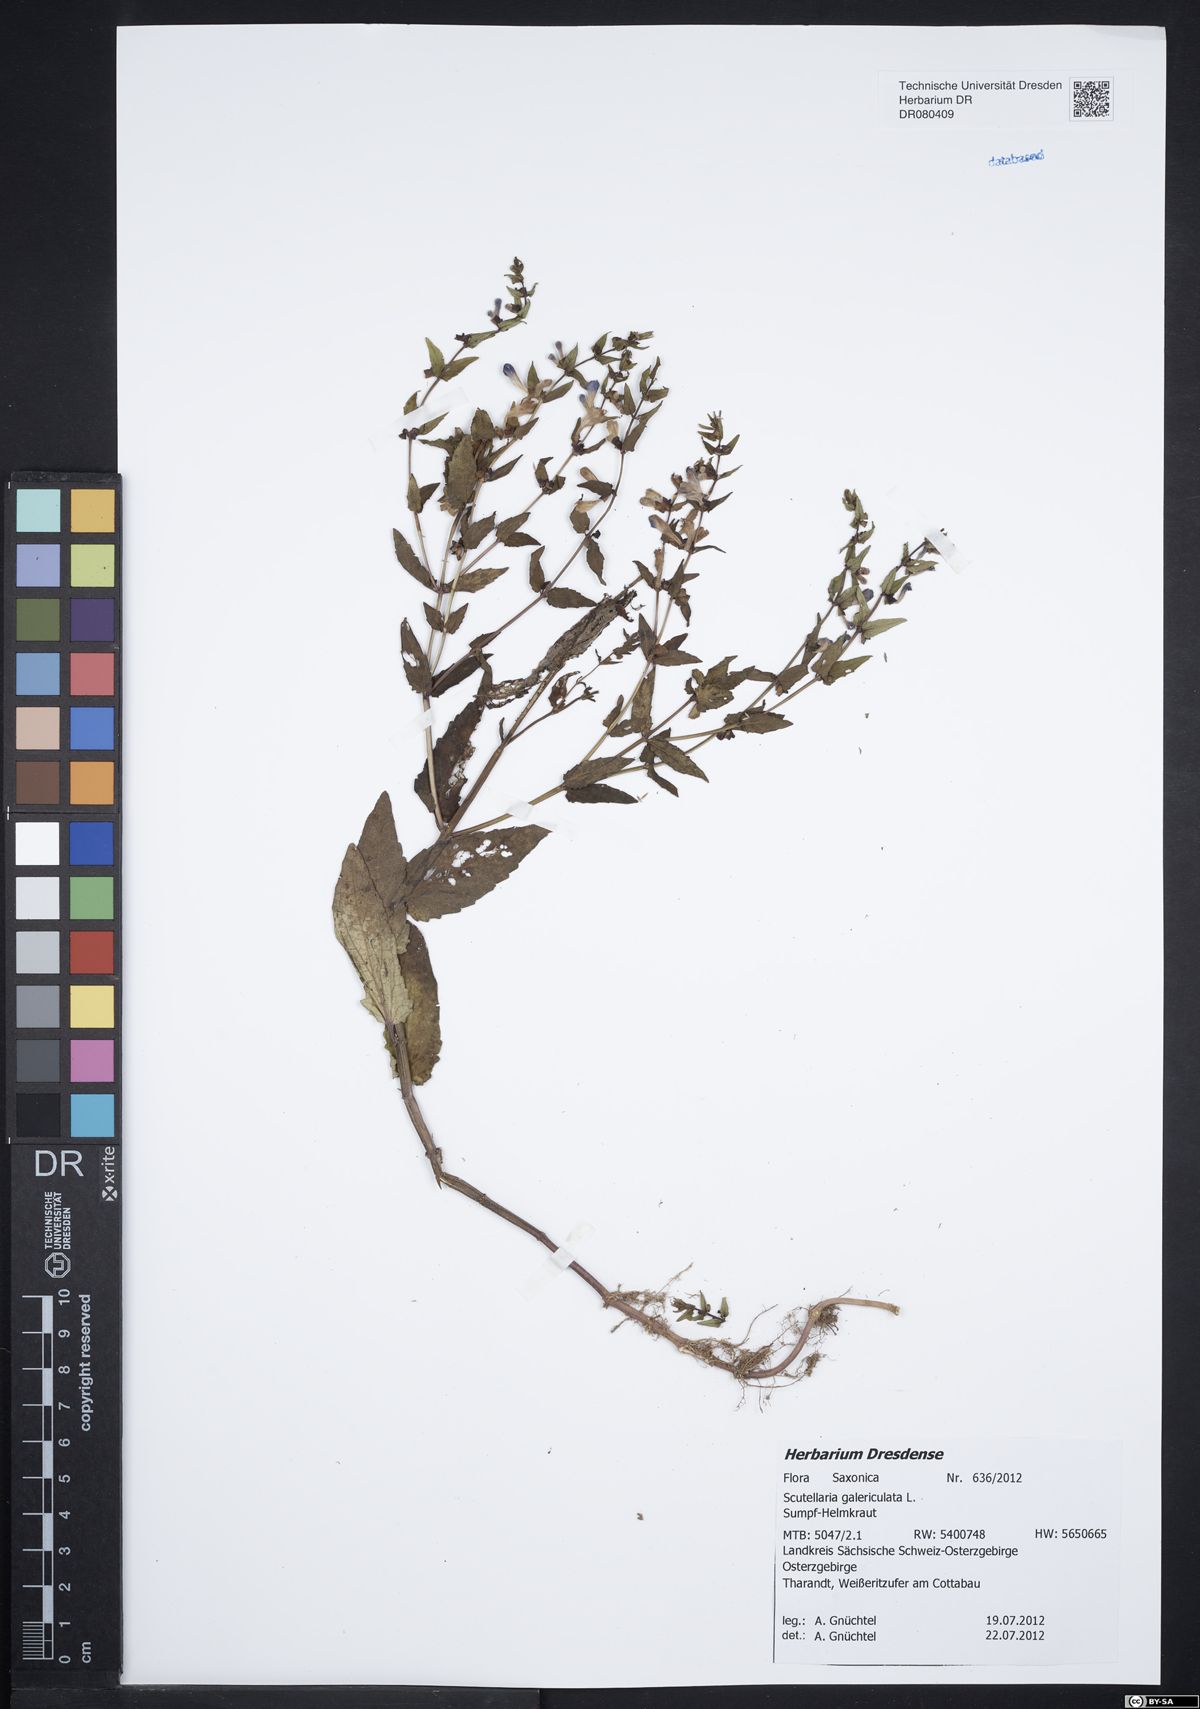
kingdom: Plantae
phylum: Tracheophyta
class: Magnoliopsida
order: Lamiales
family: Lamiaceae
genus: Scutellaria
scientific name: Scutellaria galericulata
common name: Skullcap
